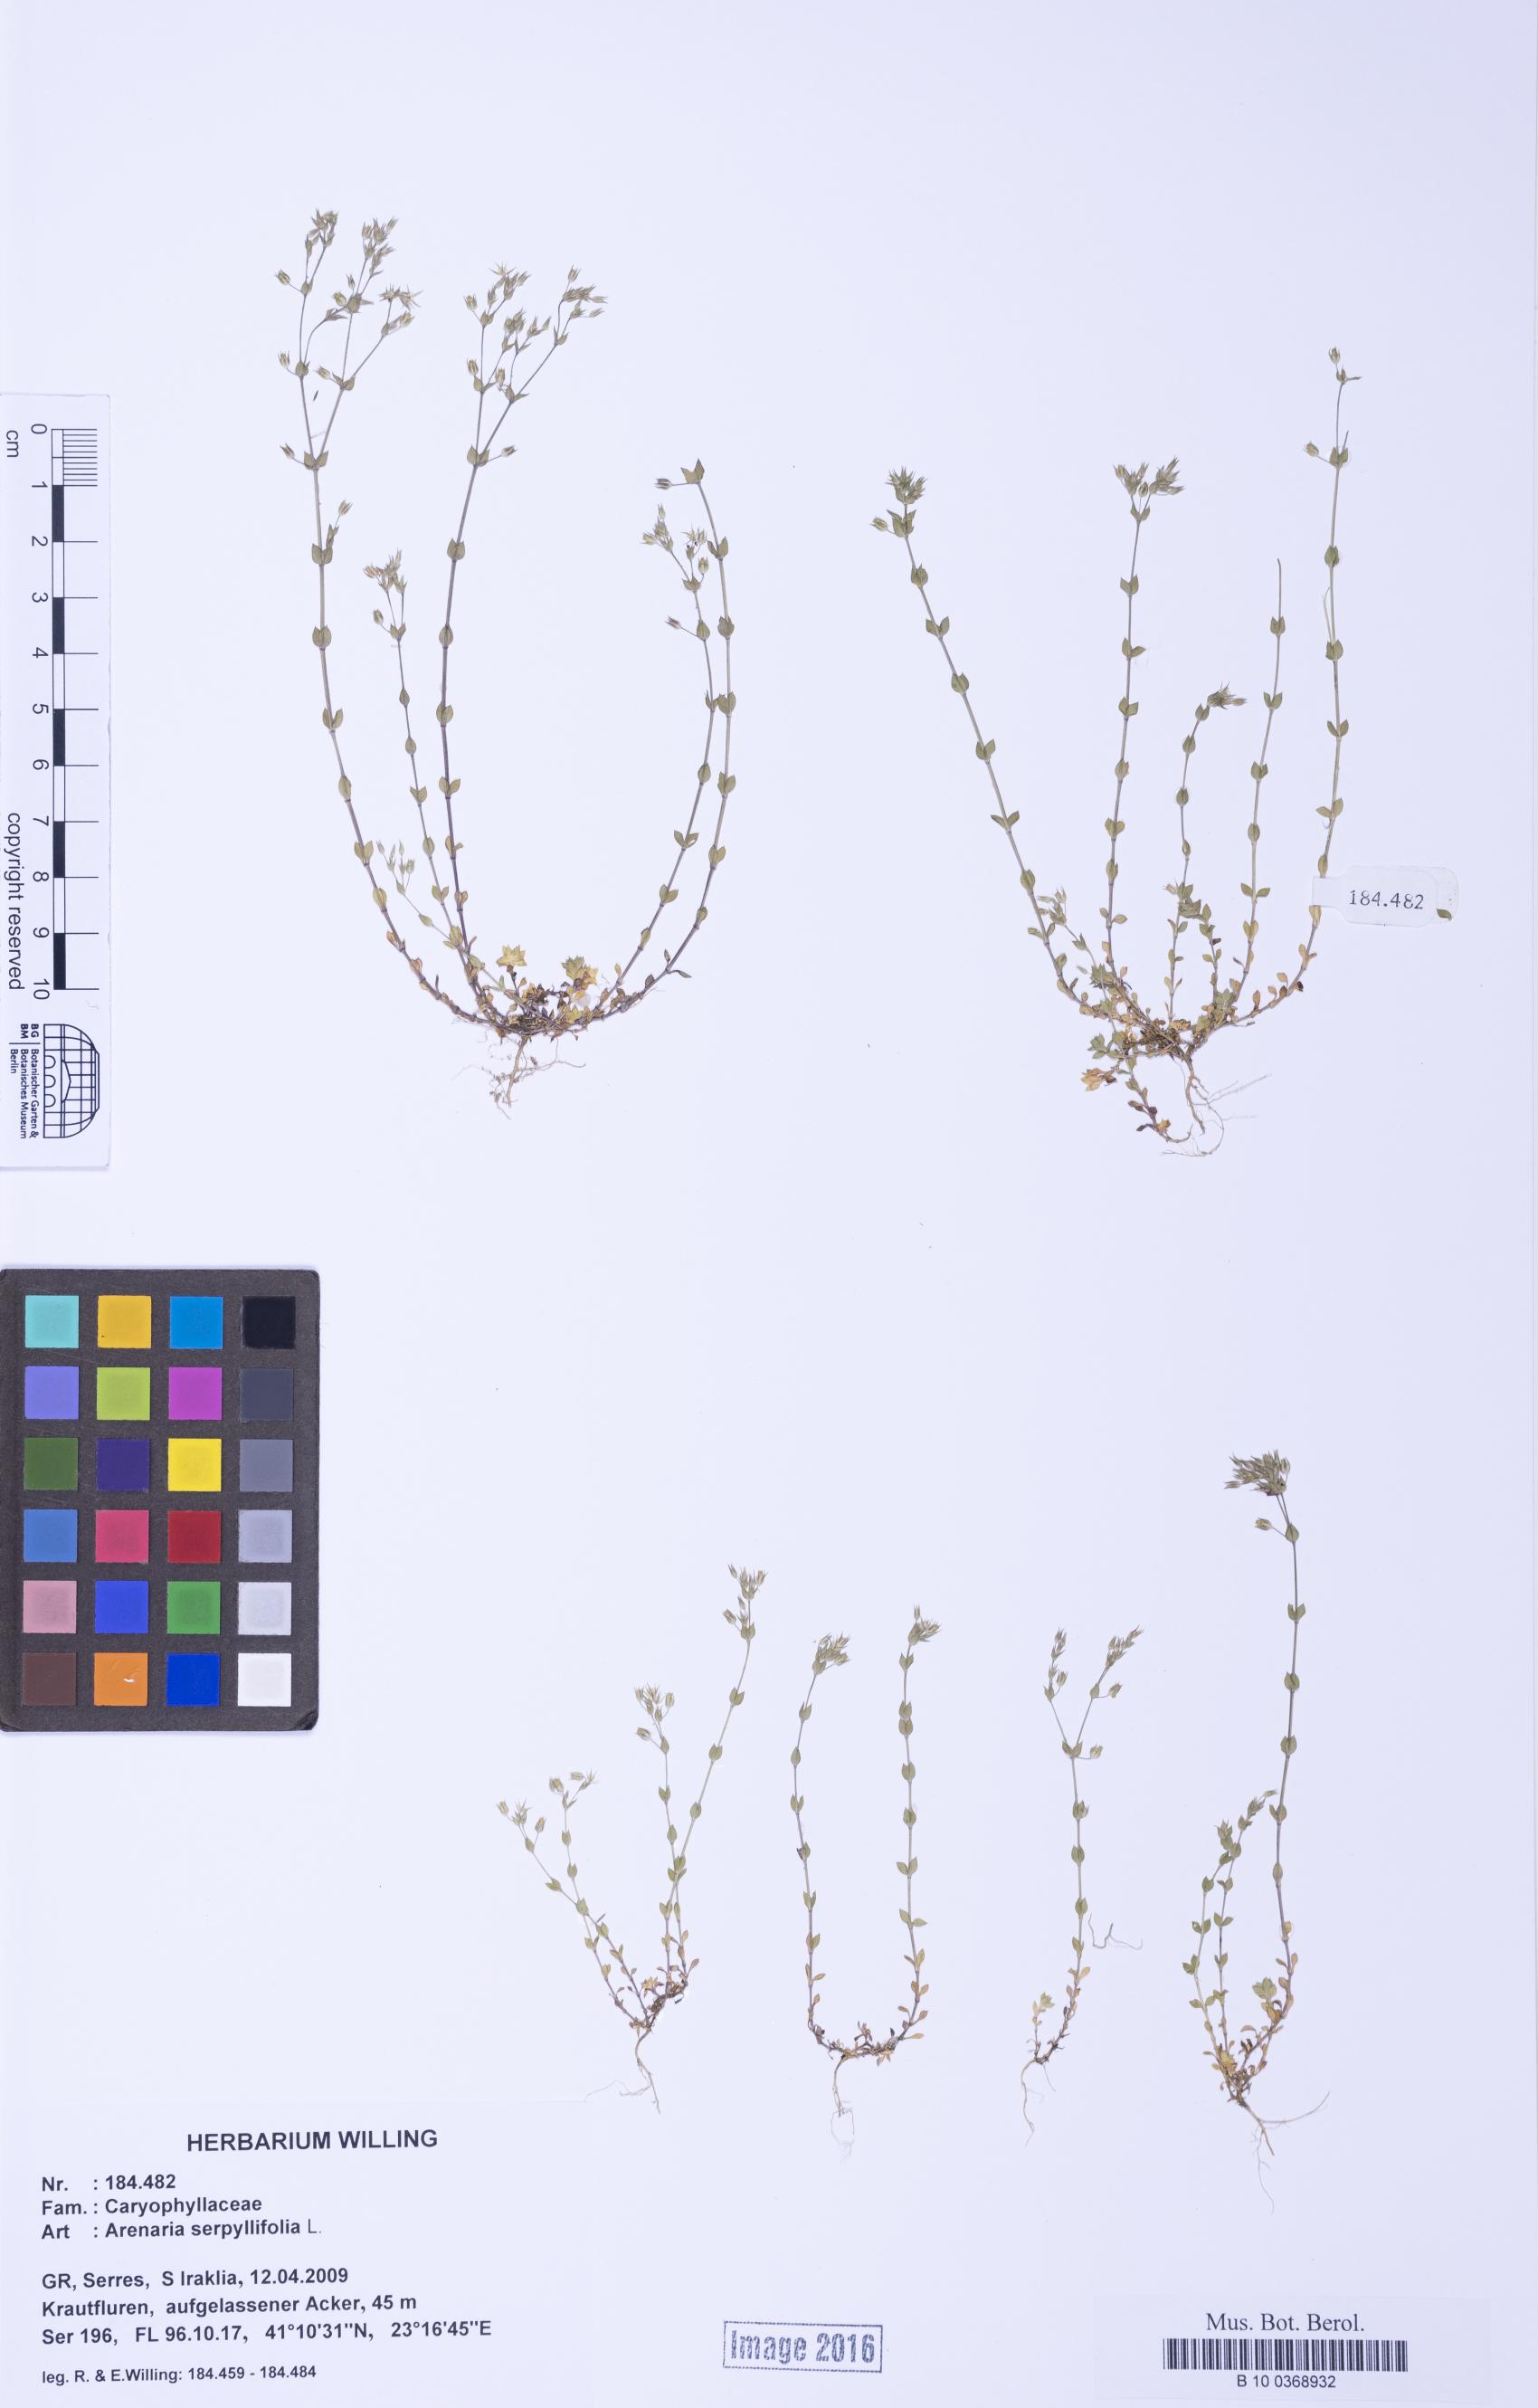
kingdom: Plantae
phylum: Tracheophyta
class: Magnoliopsida
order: Caryophyllales
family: Caryophyllaceae
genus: Arenaria
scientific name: Arenaria serpyllifolia
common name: Thyme-leaved sandwort
